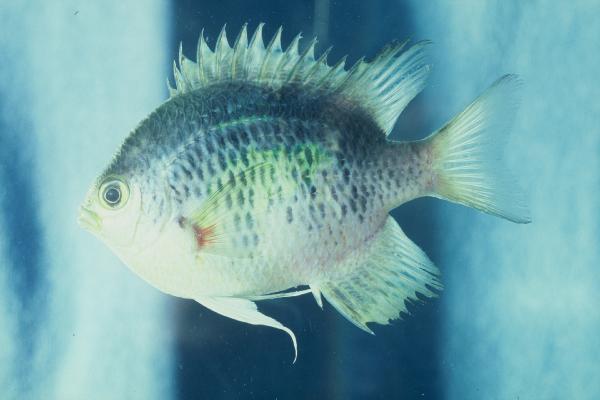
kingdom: Animalia
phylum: Chordata
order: Perciformes
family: Pomacentridae
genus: Abudefduf
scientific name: Abudefduf
